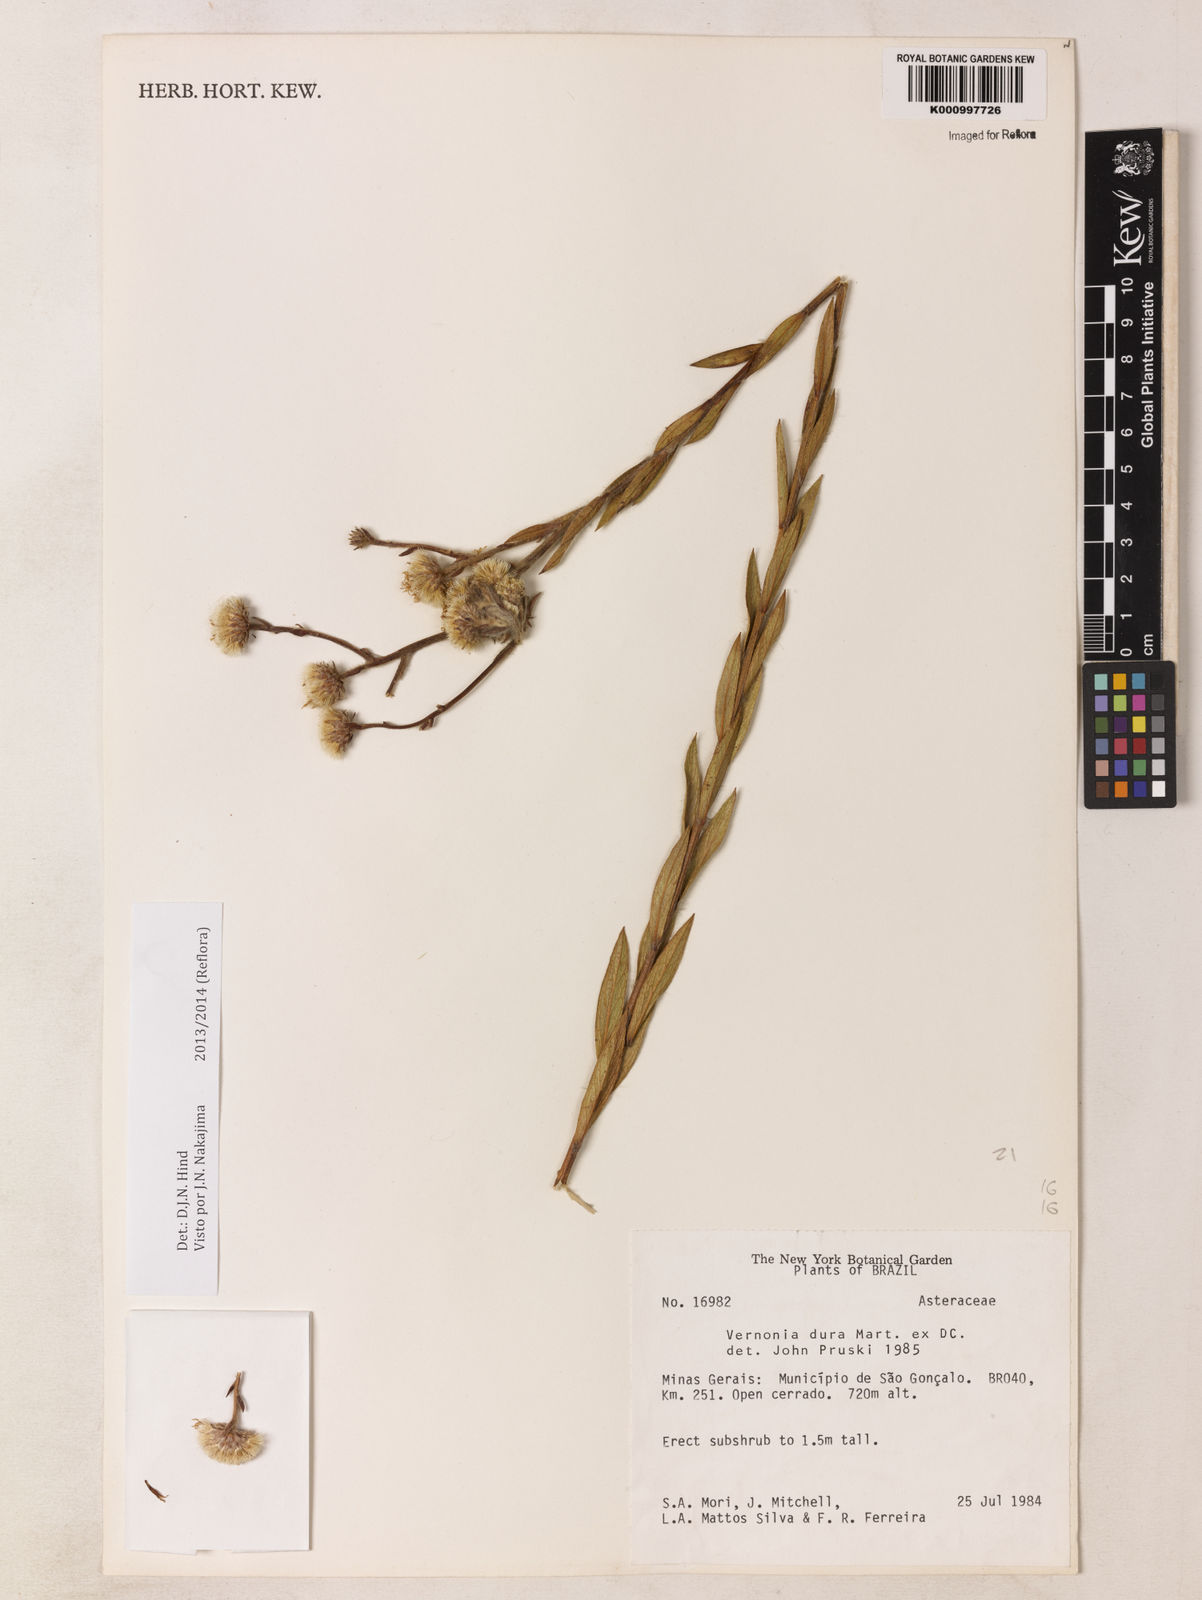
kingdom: Plantae
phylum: Tracheophyta
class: Magnoliopsida
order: Asterales
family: Asteraceae
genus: Lessingianthus
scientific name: Lessingianthus durus
